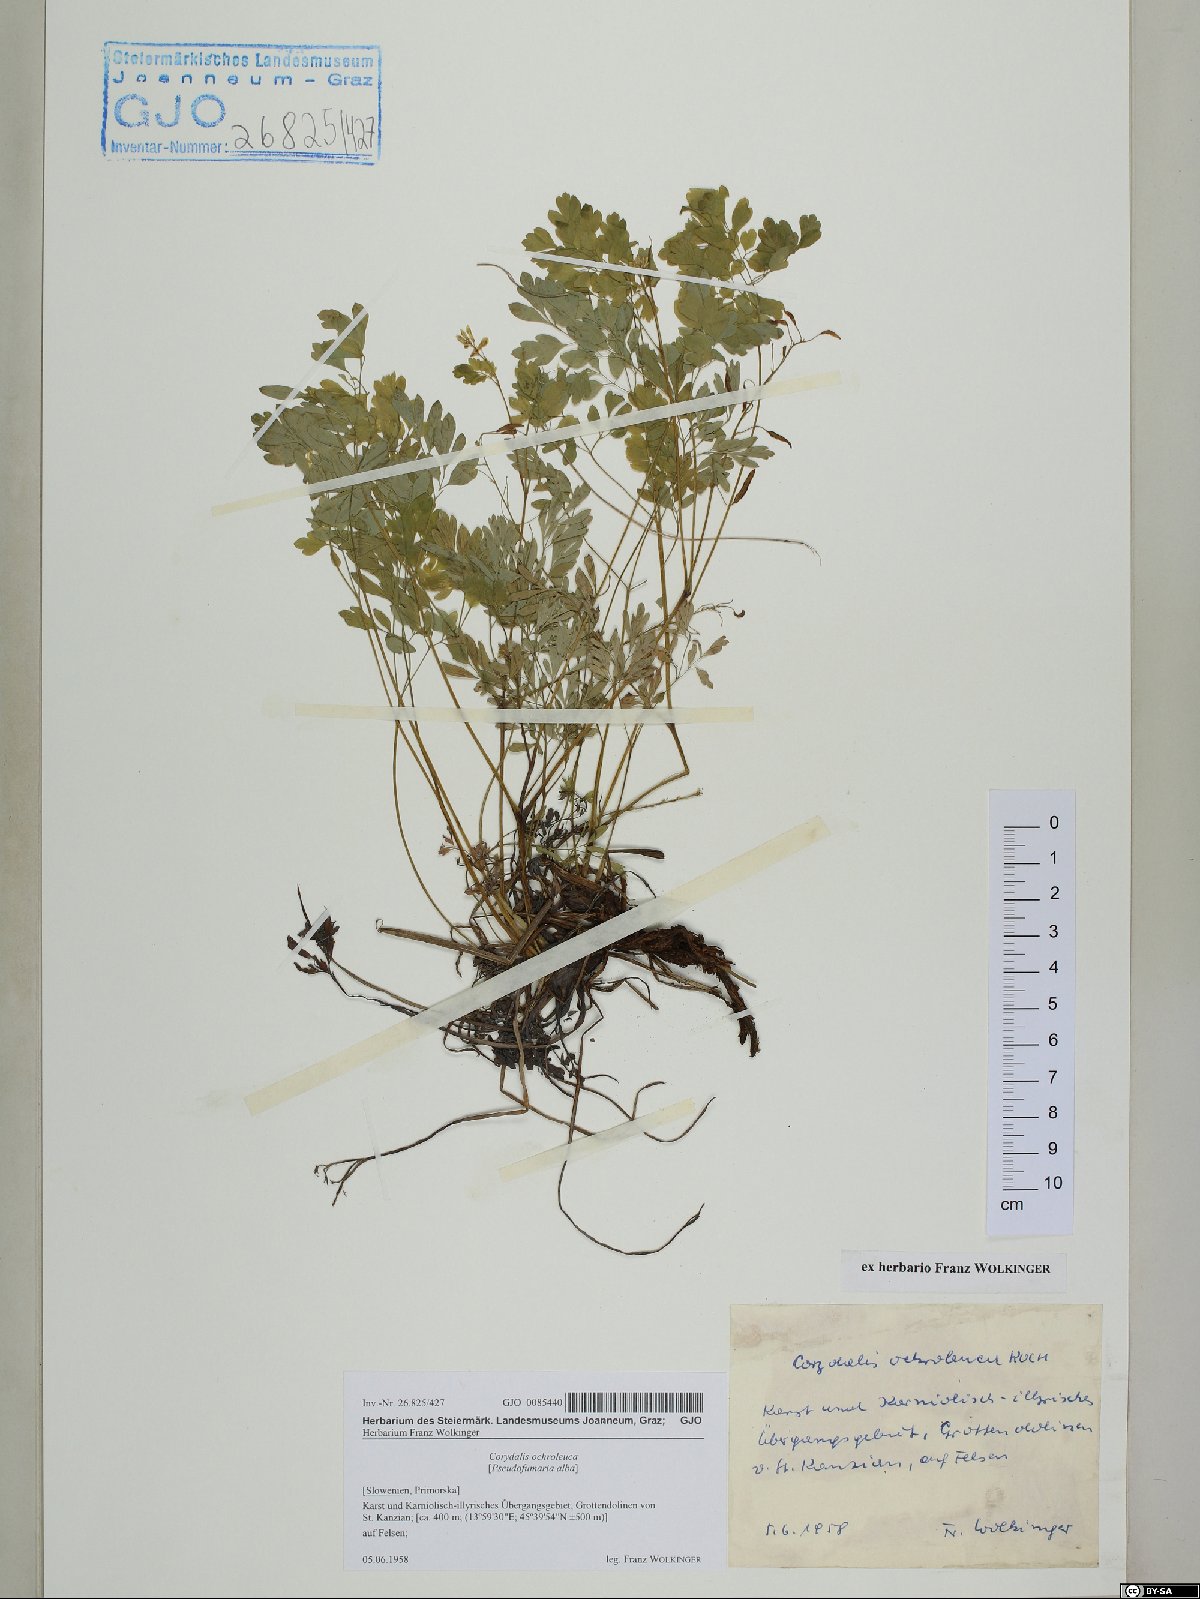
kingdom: Plantae
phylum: Tracheophyta
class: Magnoliopsida
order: Ranunculales
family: Papaveraceae
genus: Pseudofumaria
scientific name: Pseudofumaria alba
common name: Pale corydalis
